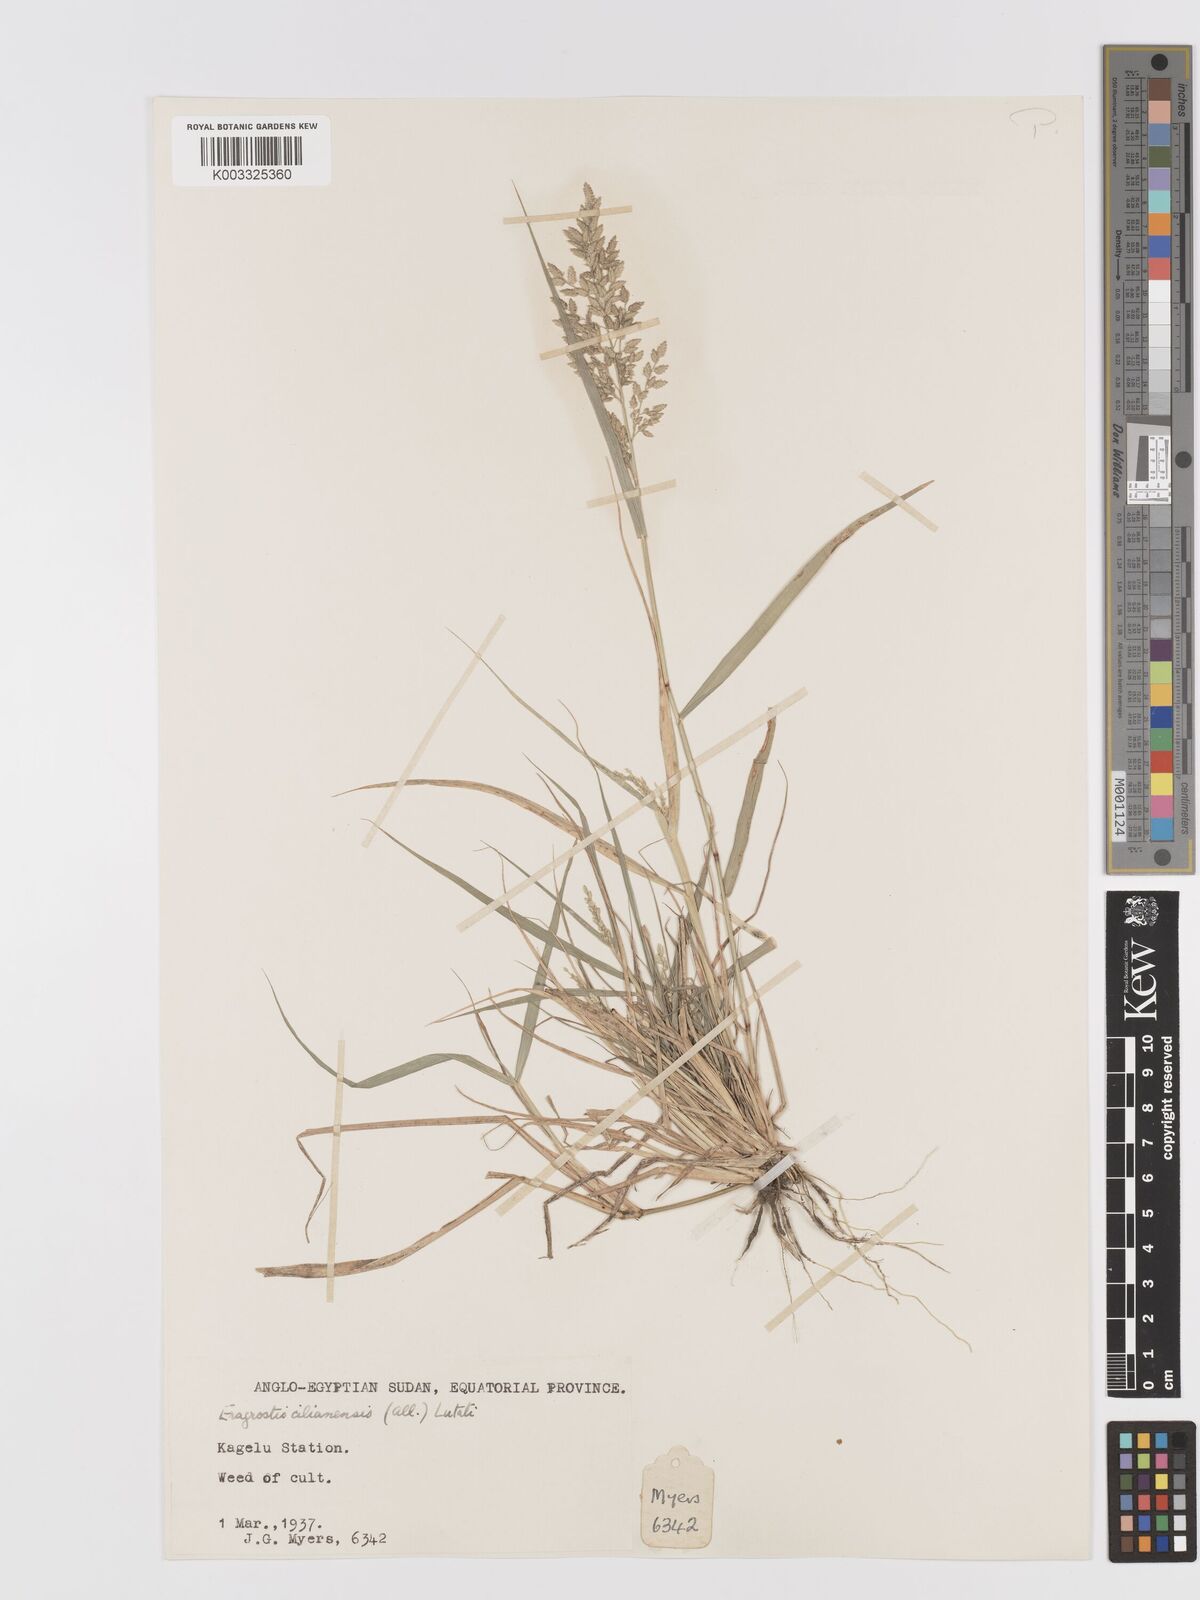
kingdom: Plantae
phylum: Tracheophyta
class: Liliopsida
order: Poales
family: Poaceae
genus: Eragrostis
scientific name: Eragrostis cilianensis
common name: Stinkgrass
